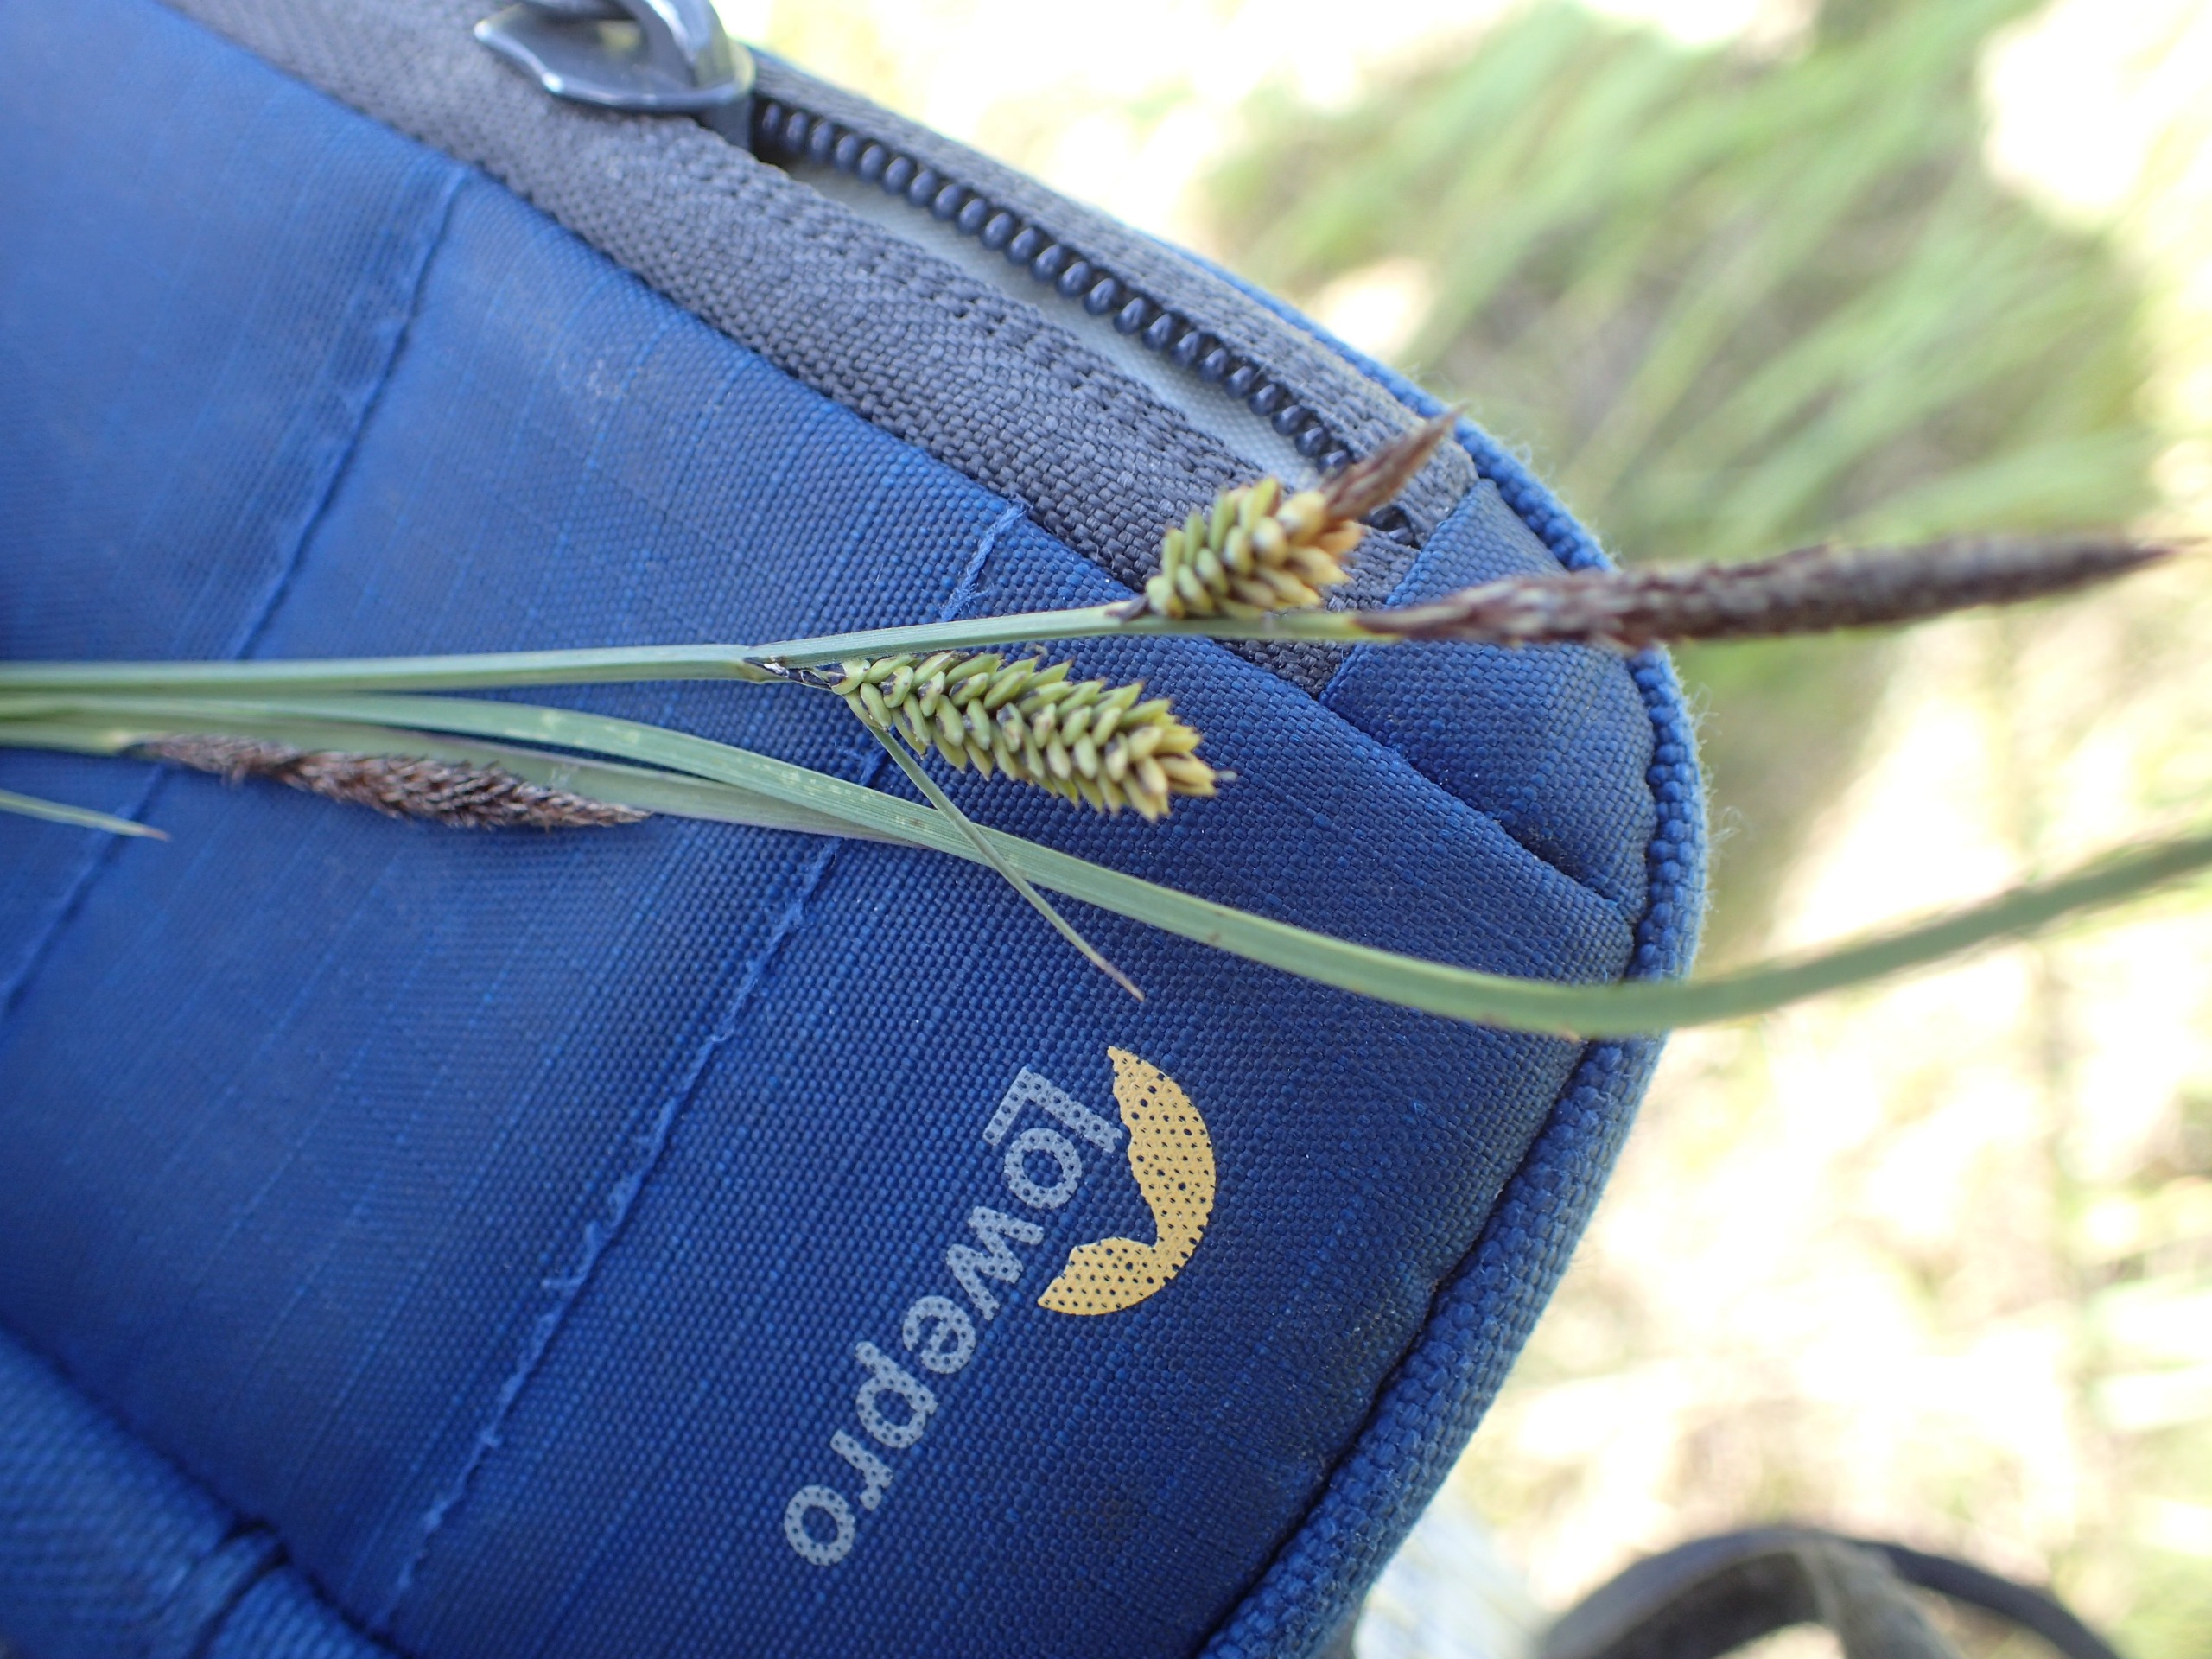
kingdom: Plantae
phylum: Tracheophyta
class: Liliopsida
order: Poales
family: Cyperaceae
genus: Carex
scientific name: Carex nigra
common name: Almindelig star
